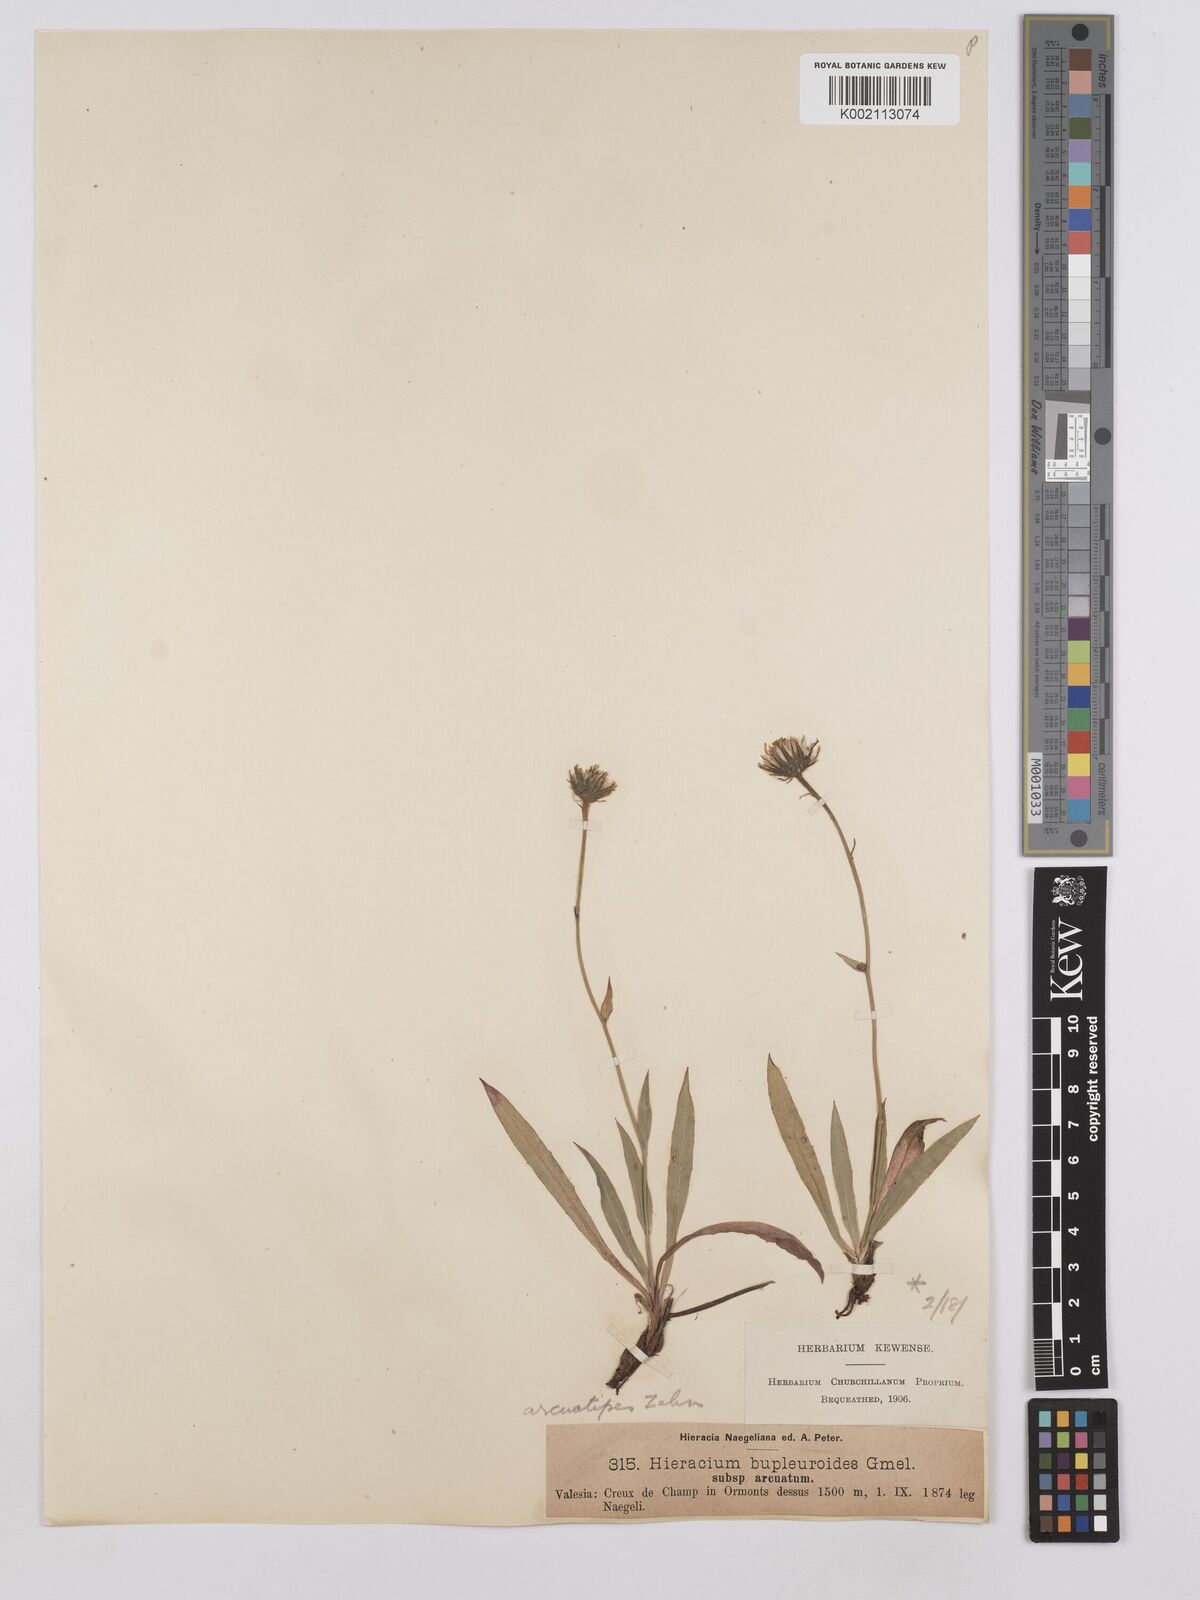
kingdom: Plantae
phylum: Tracheophyta
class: Magnoliopsida
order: Asterales
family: Asteraceae
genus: Hieracium
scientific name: Hieracium bupleuroides
